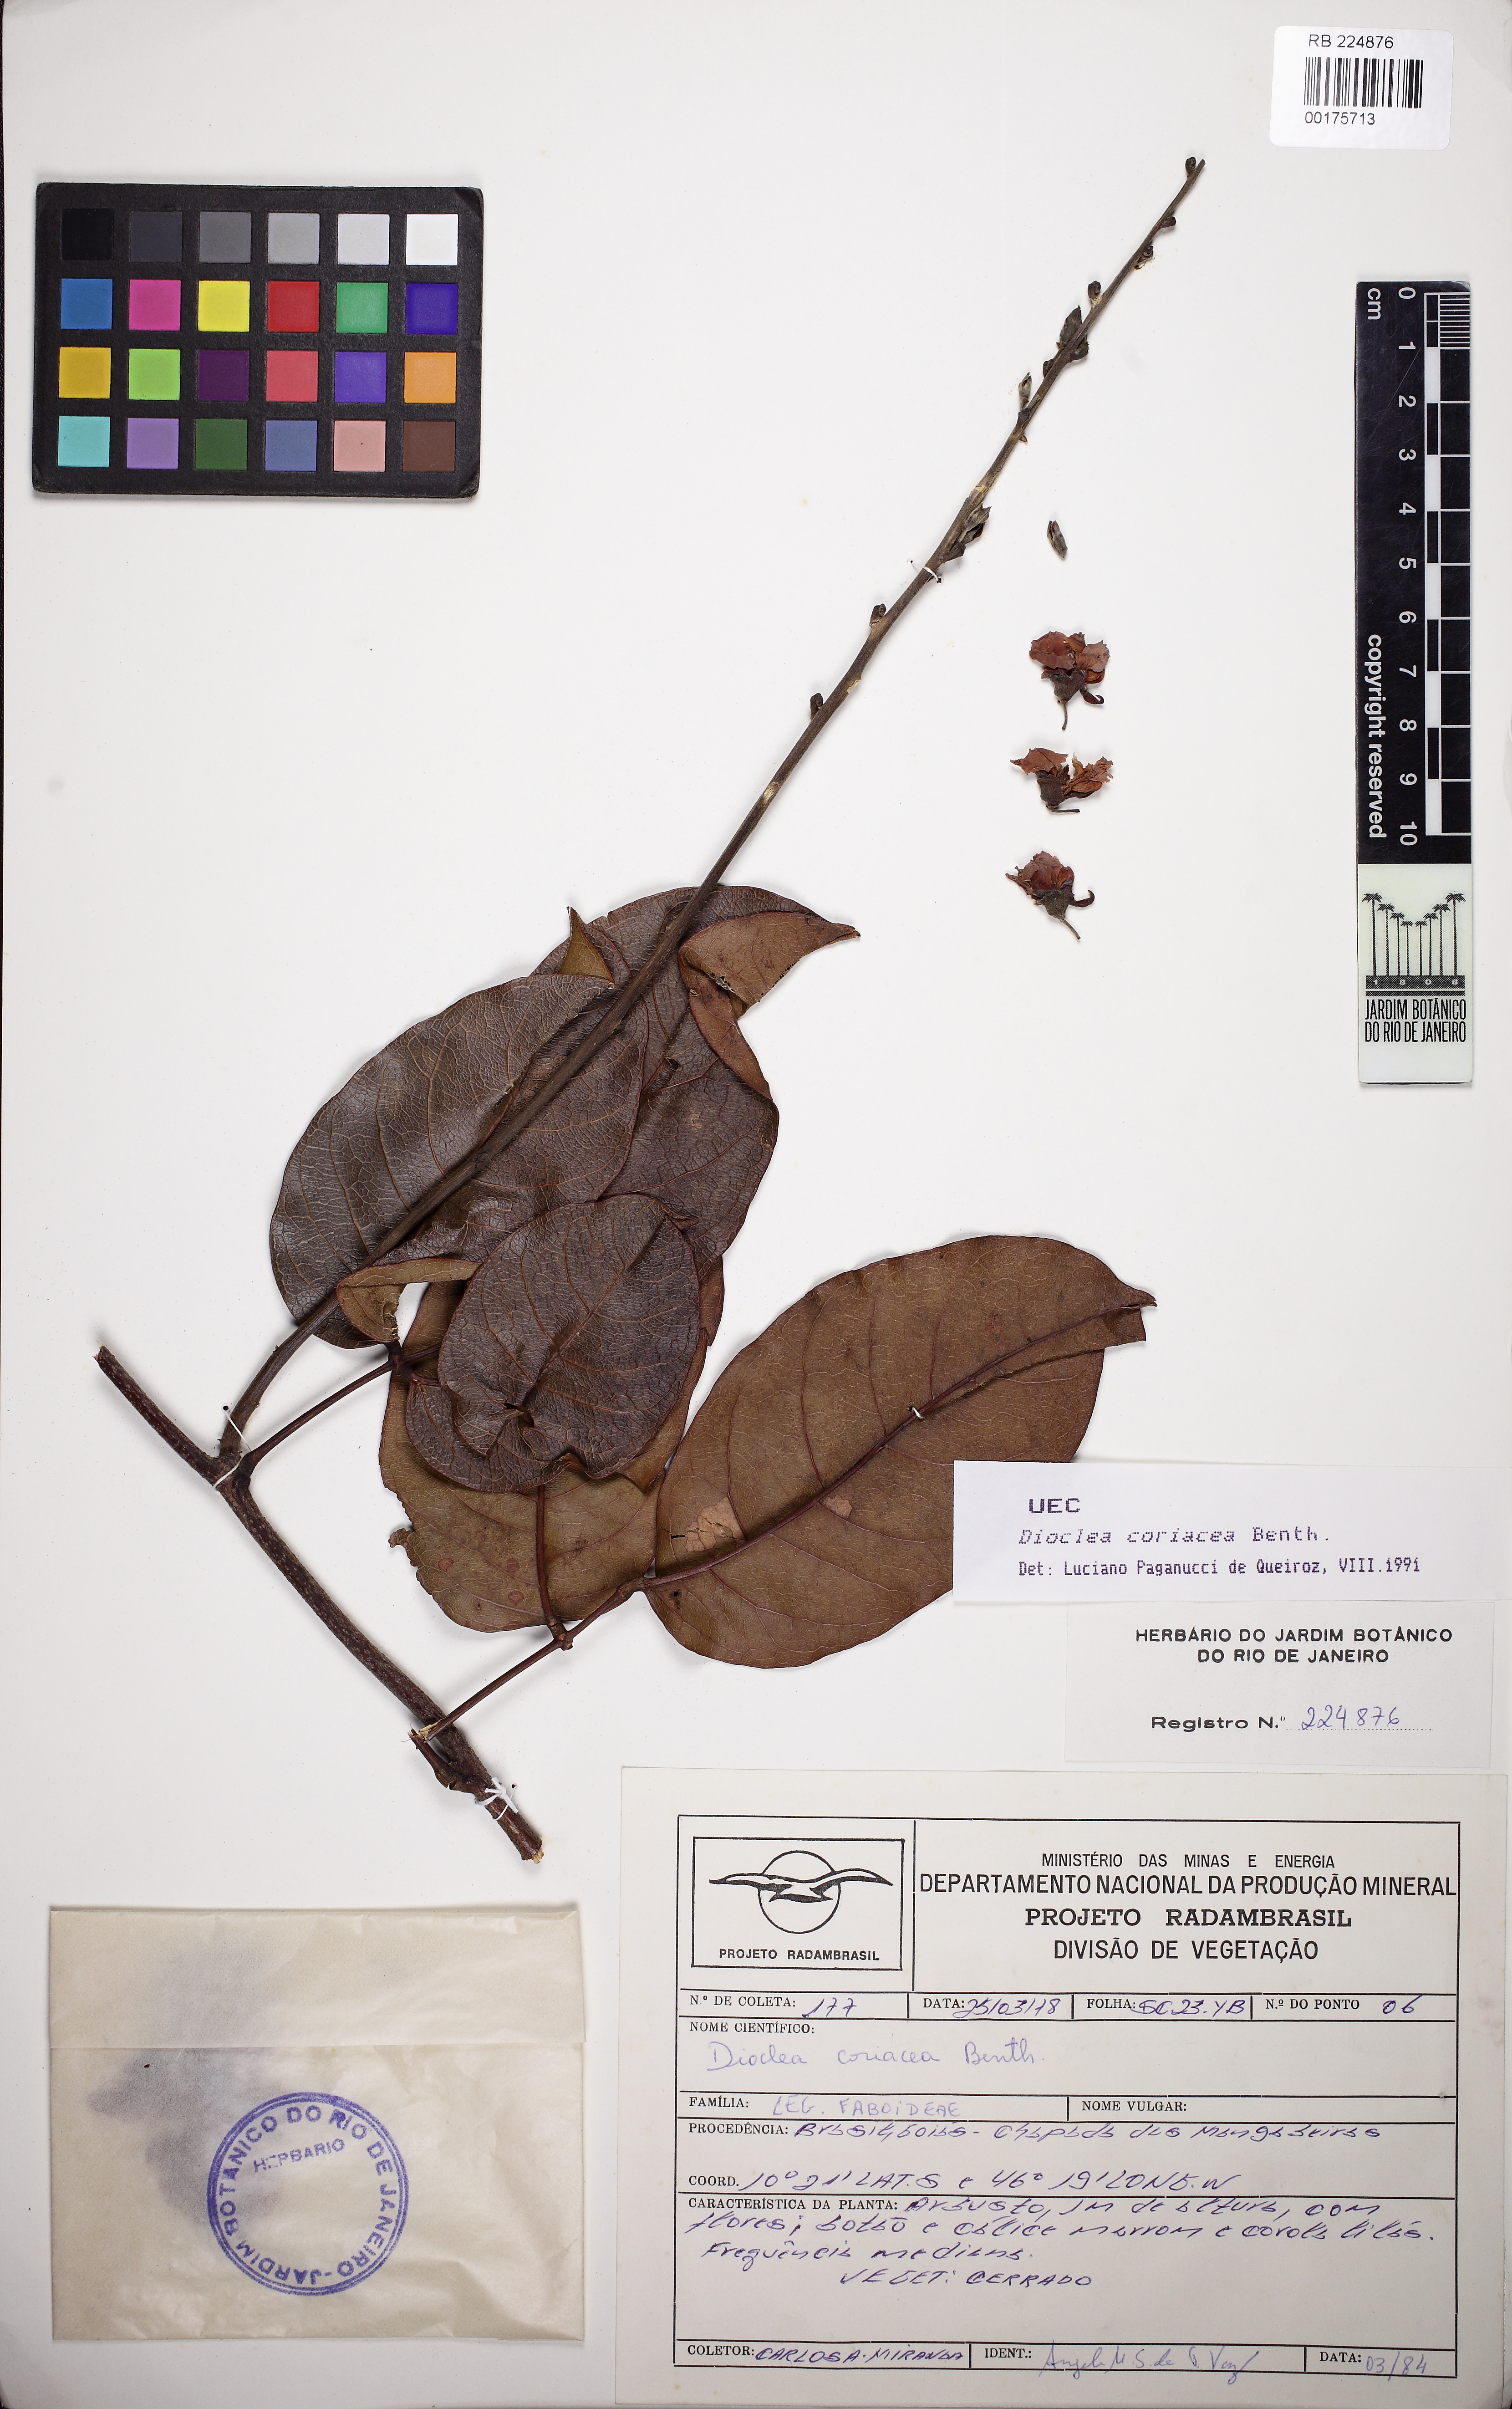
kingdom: Plantae
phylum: Tracheophyta
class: Magnoliopsida
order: Fabales
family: Fabaceae
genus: Macropsychanthus
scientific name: Macropsychanthus coriaceus
